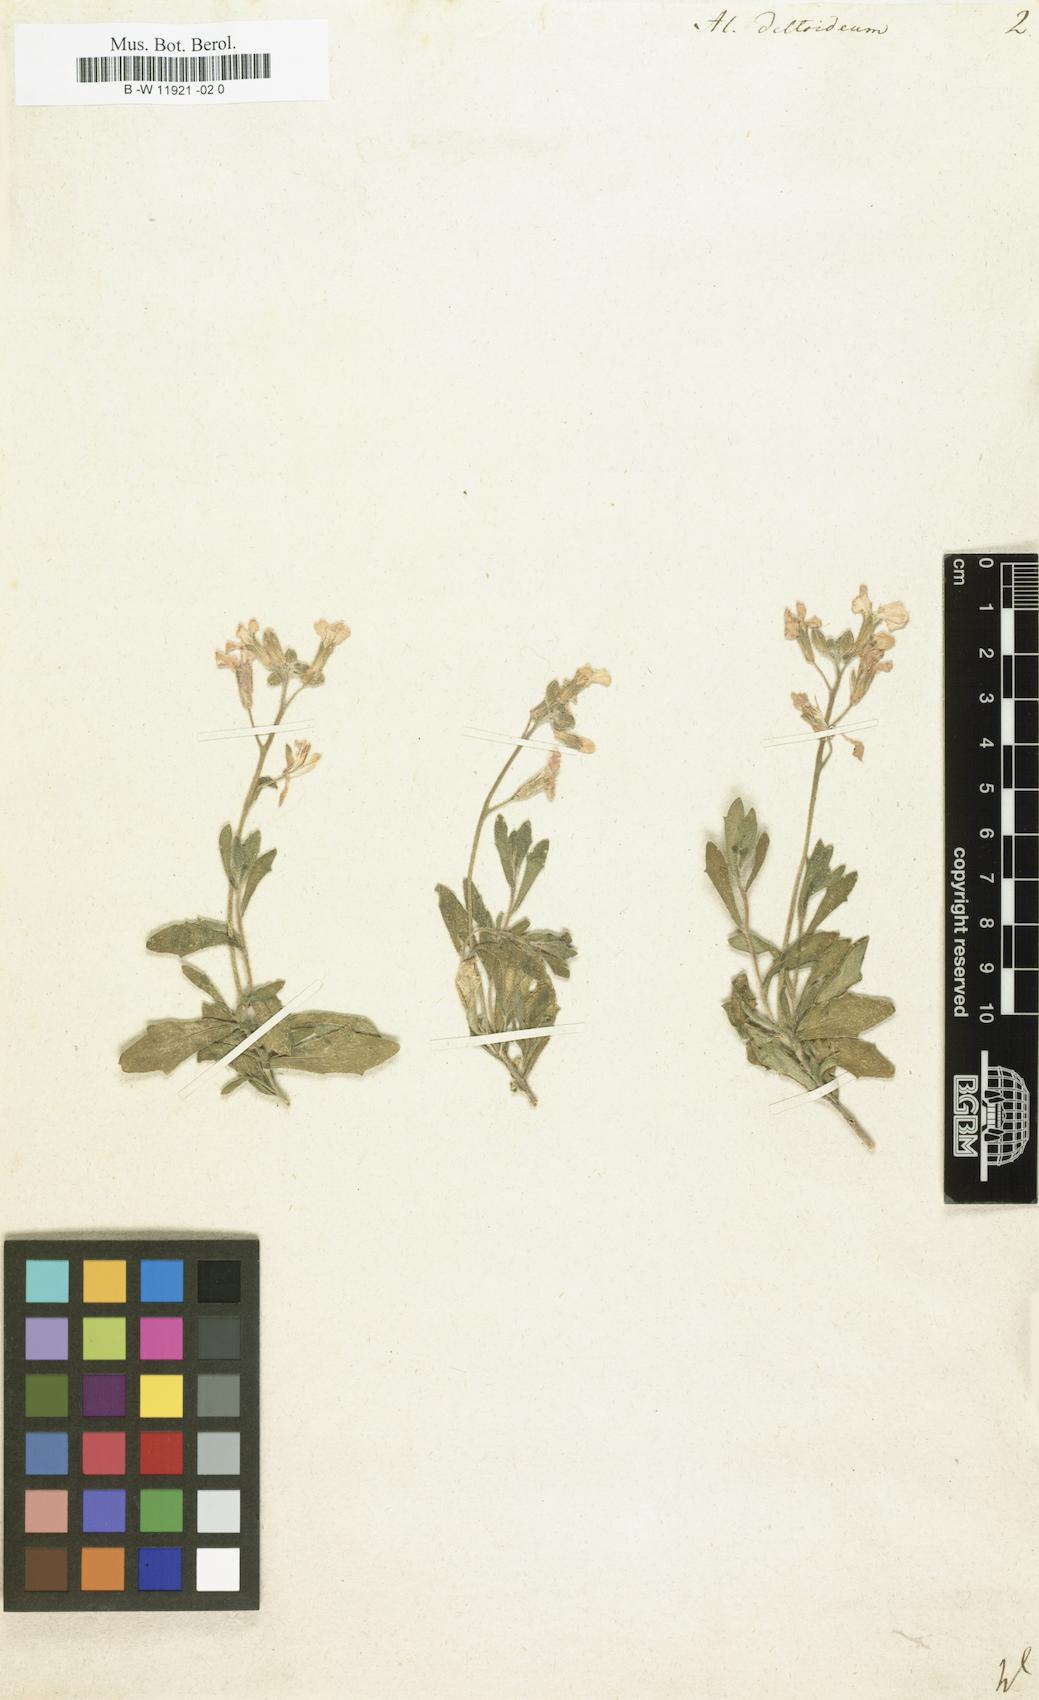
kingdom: Plantae
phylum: Tracheophyta
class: Magnoliopsida
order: Brassicales
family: Brassicaceae
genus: Aubrieta
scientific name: Aubrieta deltoidea
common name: Aubretia
